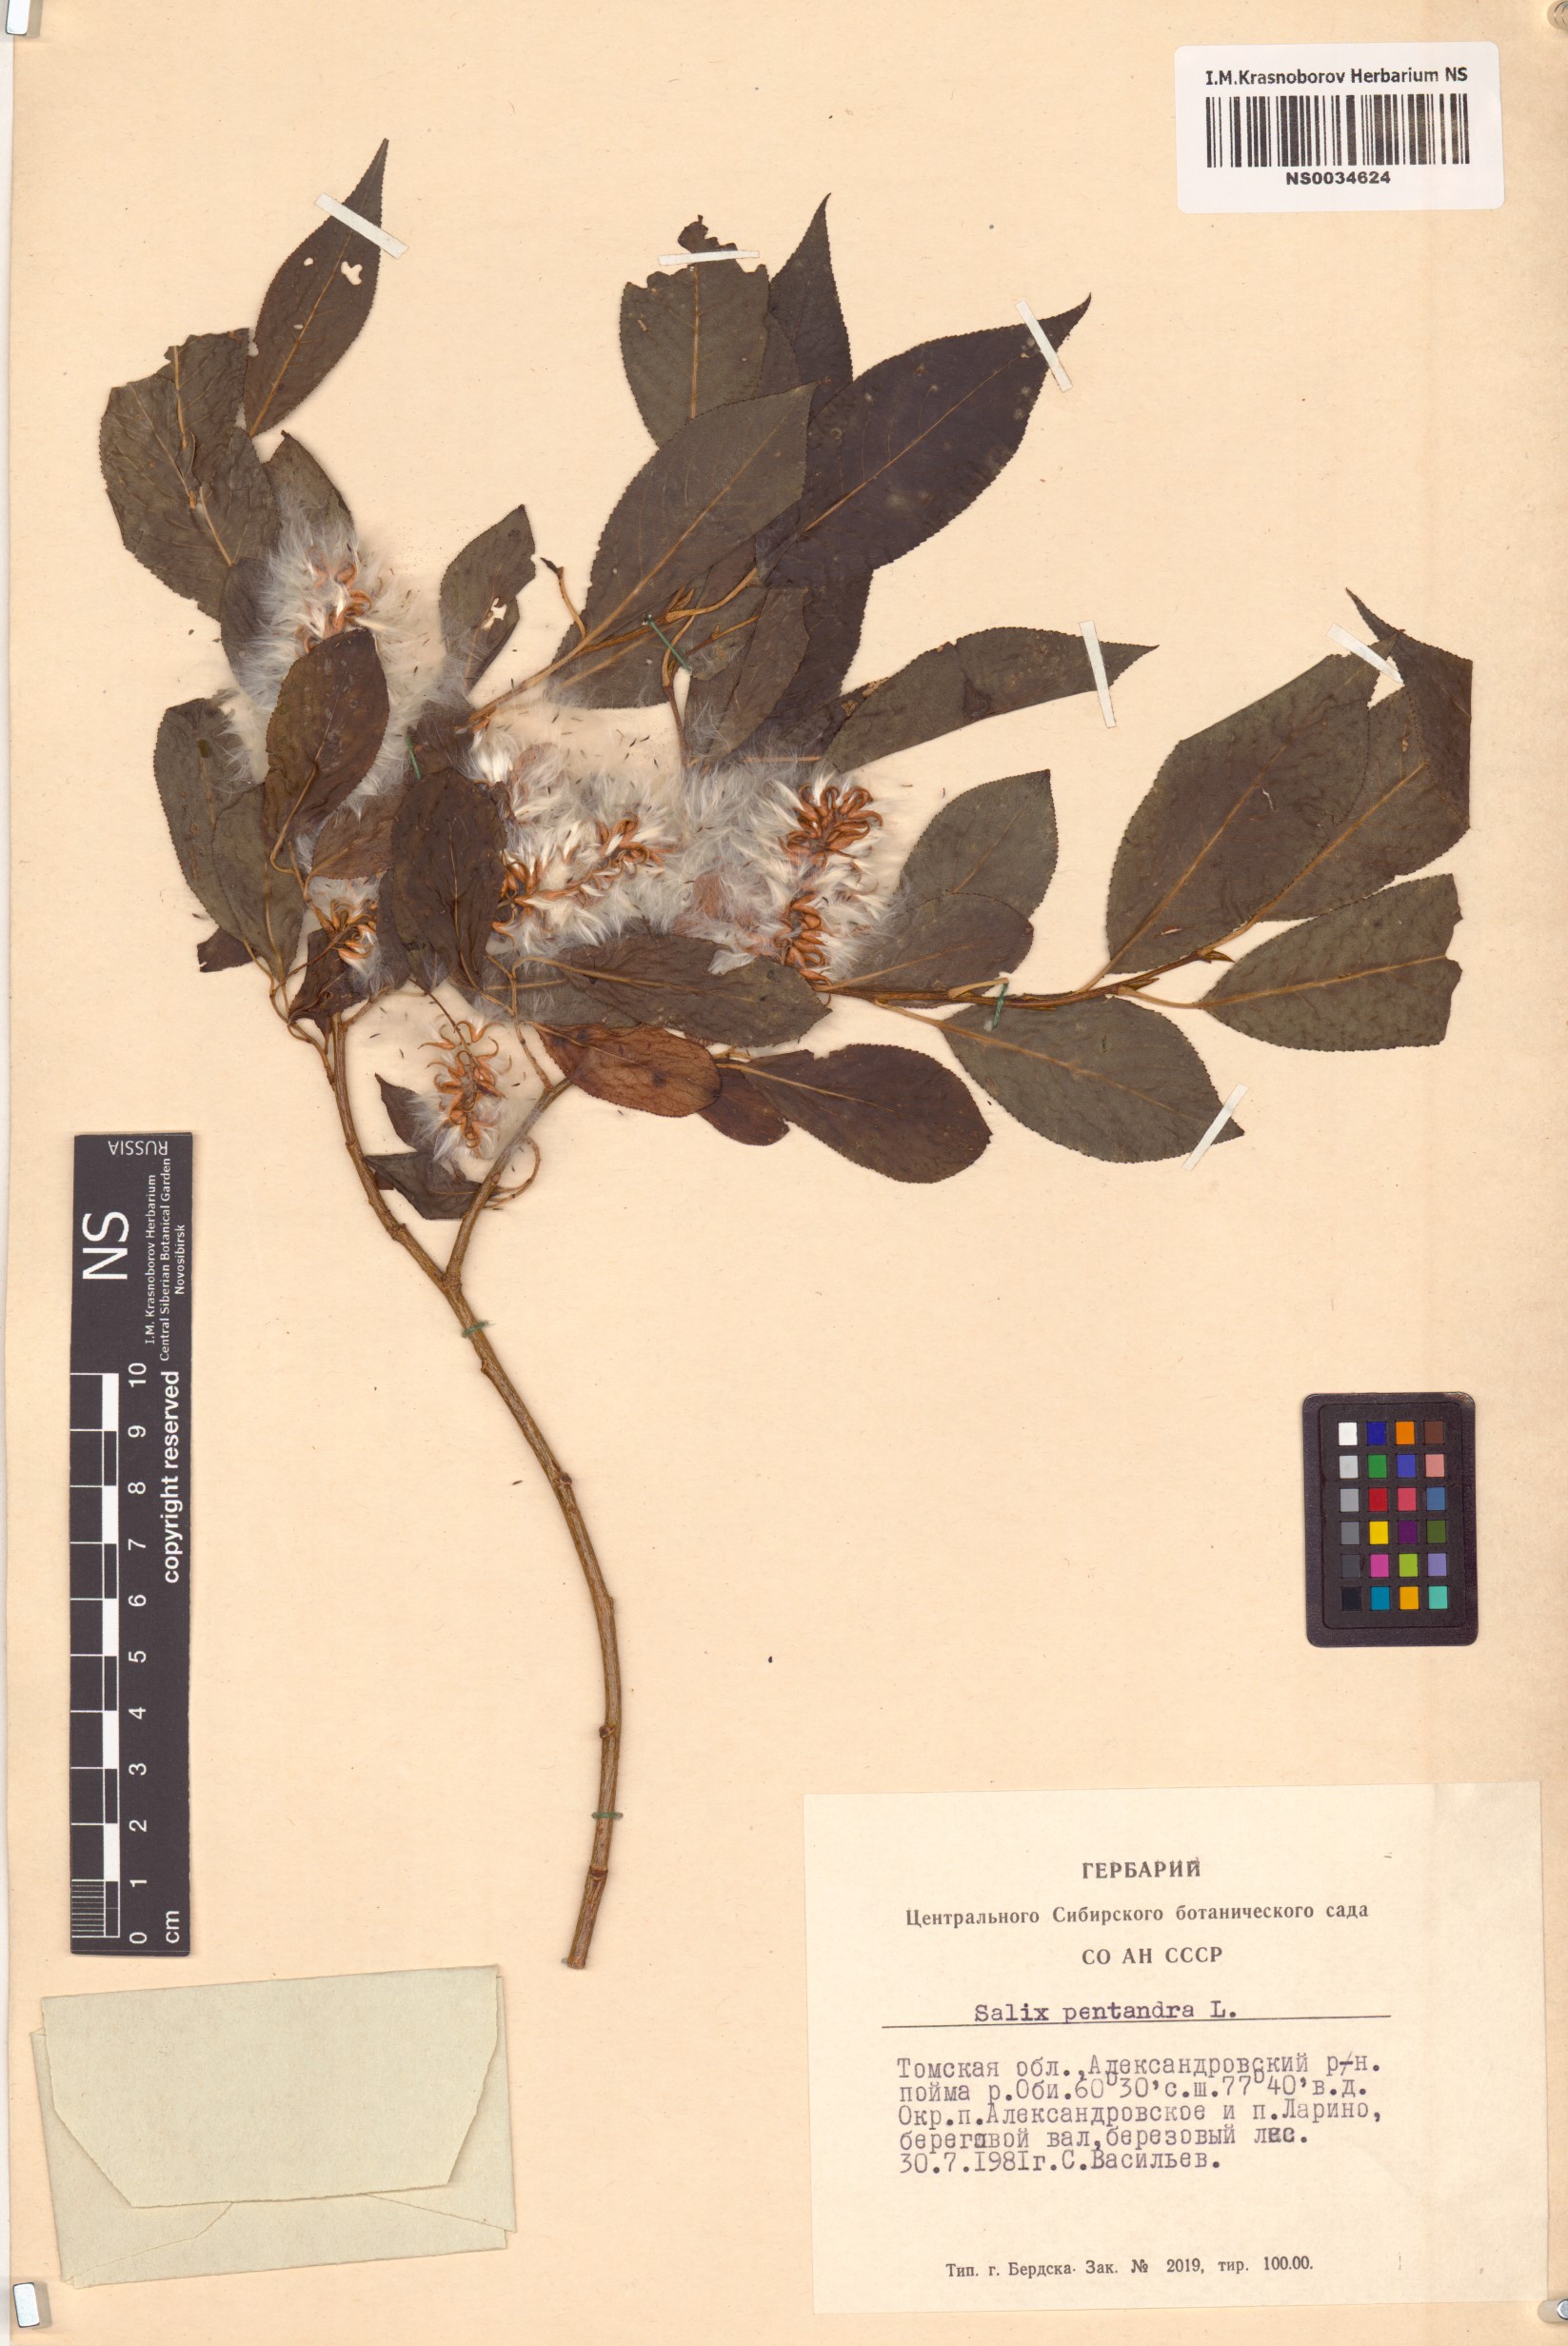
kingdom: Plantae
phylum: Tracheophyta
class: Magnoliopsida
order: Malpighiales
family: Salicaceae
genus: Salix
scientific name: Salix pentandra
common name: Bay willow
